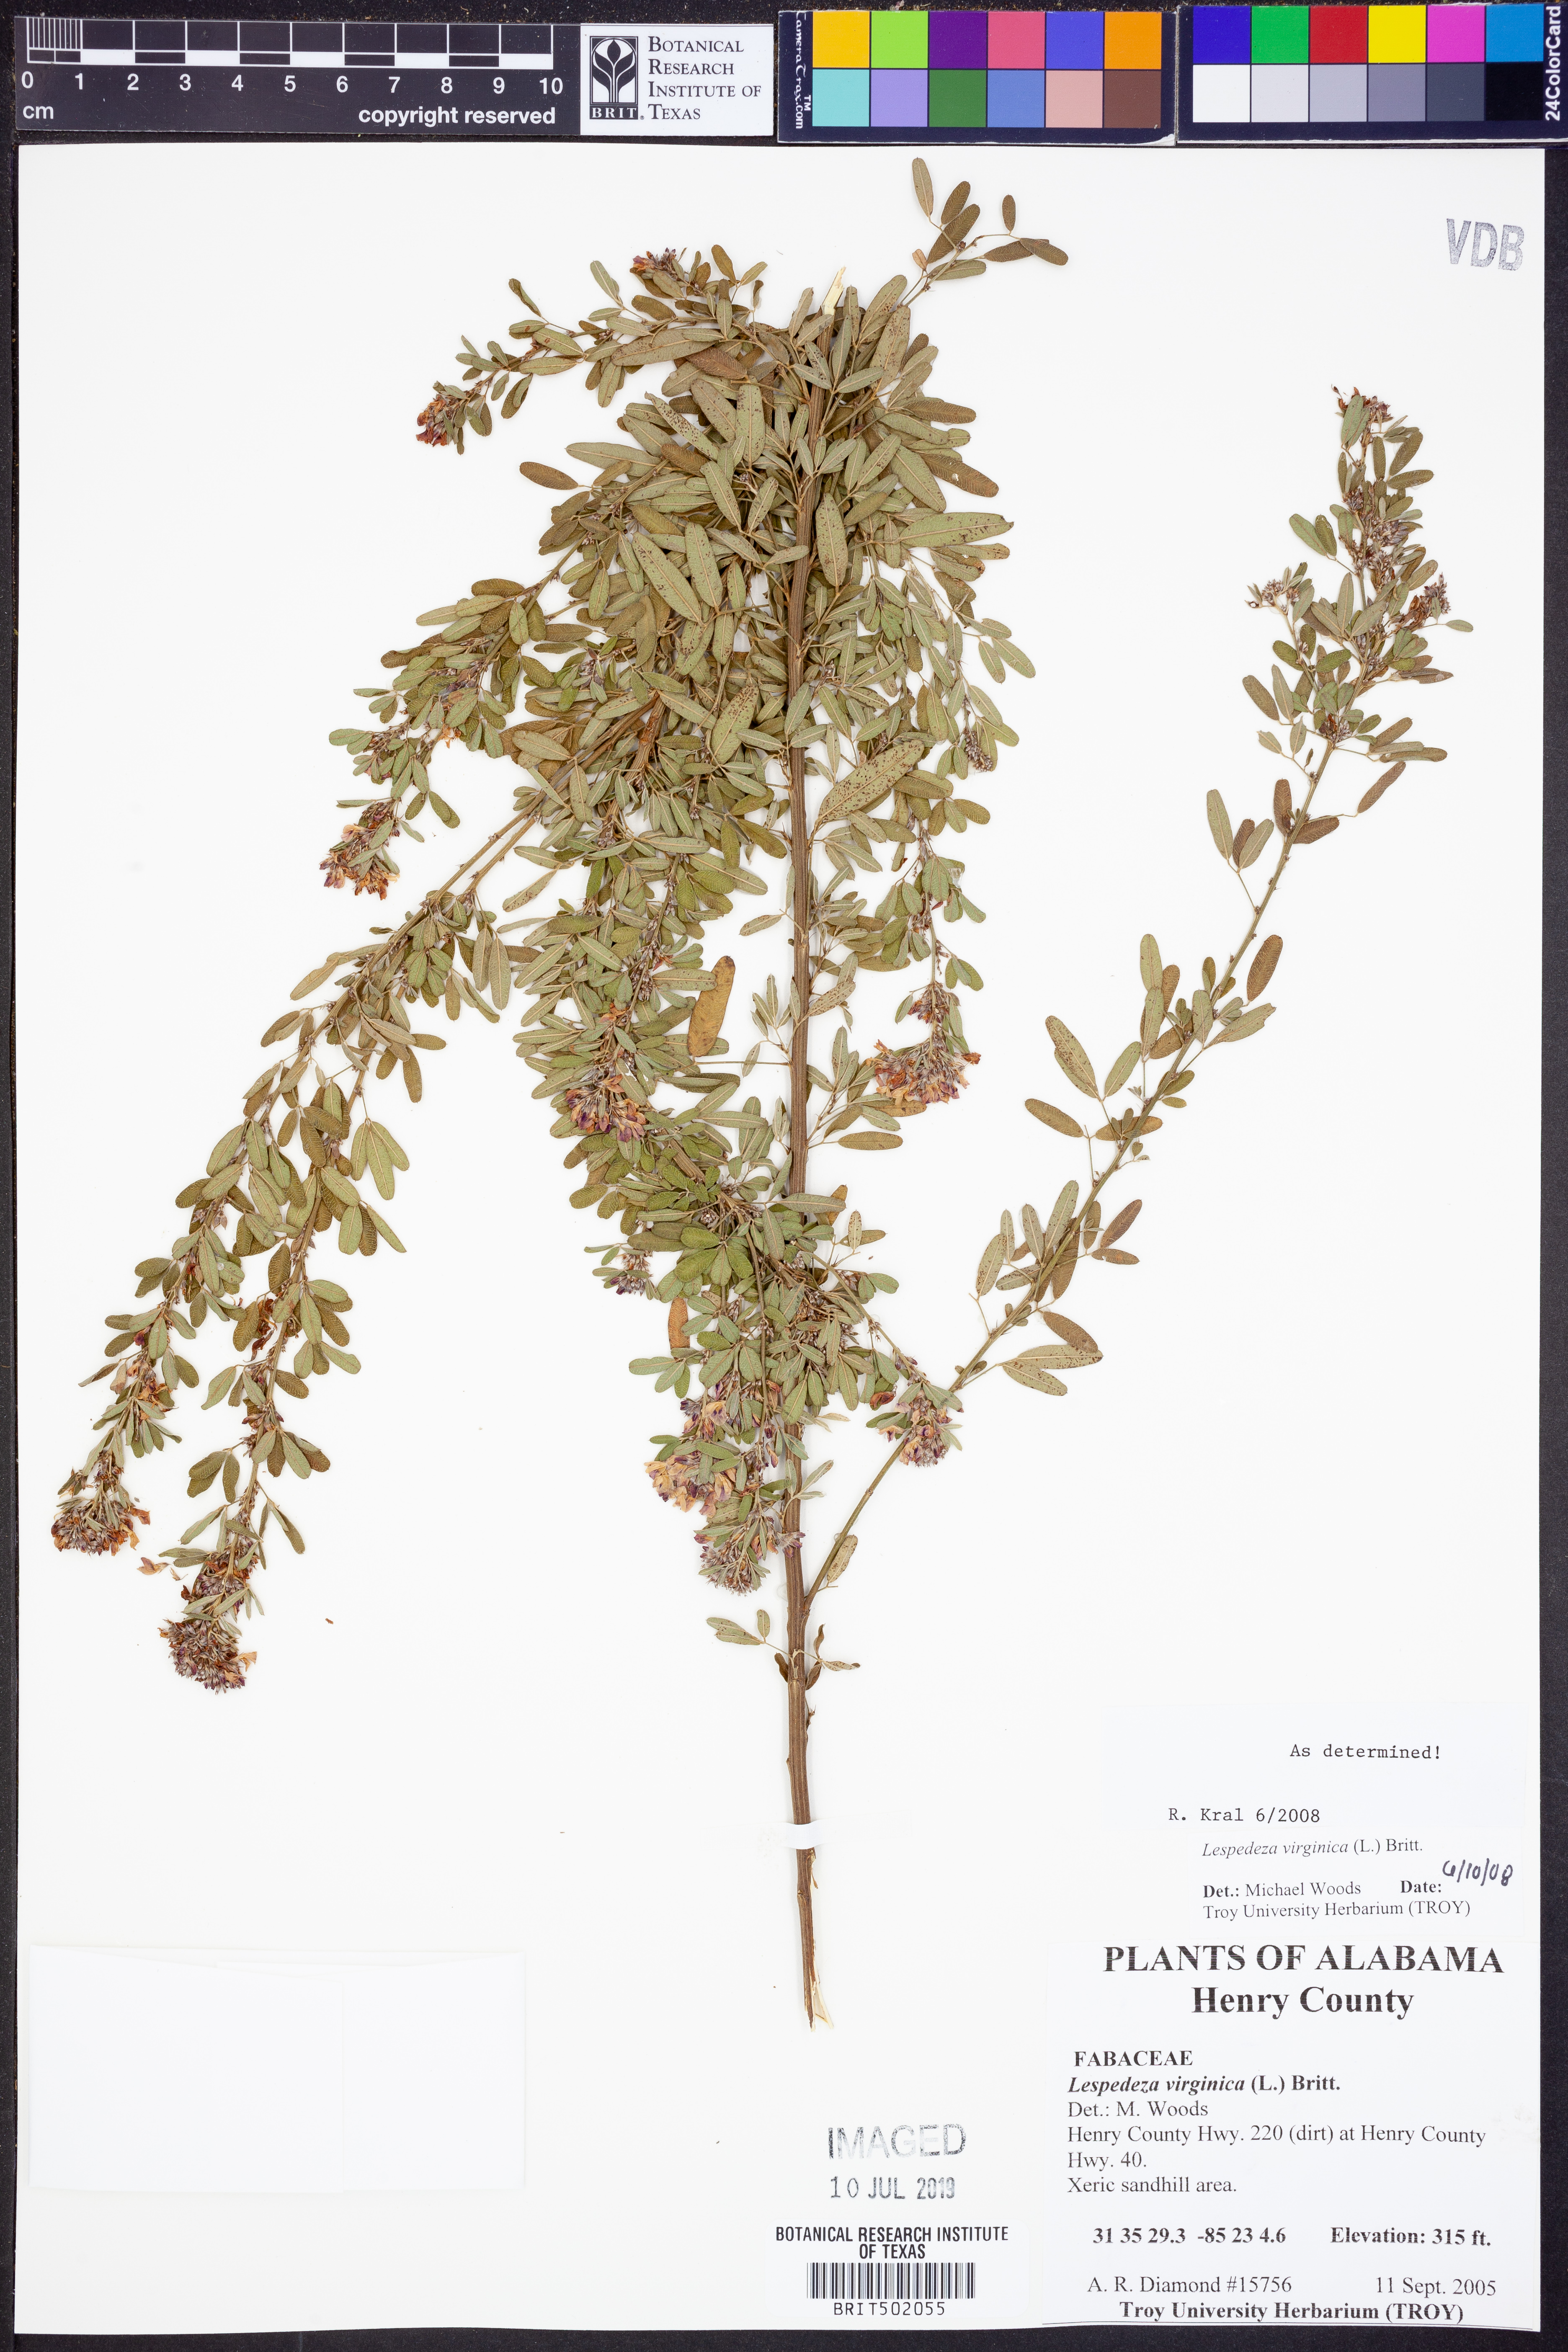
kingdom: Plantae
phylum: Tracheophyta
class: Magnoliopsida
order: Fabales
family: Fabaceae
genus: Lespedeza
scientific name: Lespedeza virginica
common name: Slender bush-clover
